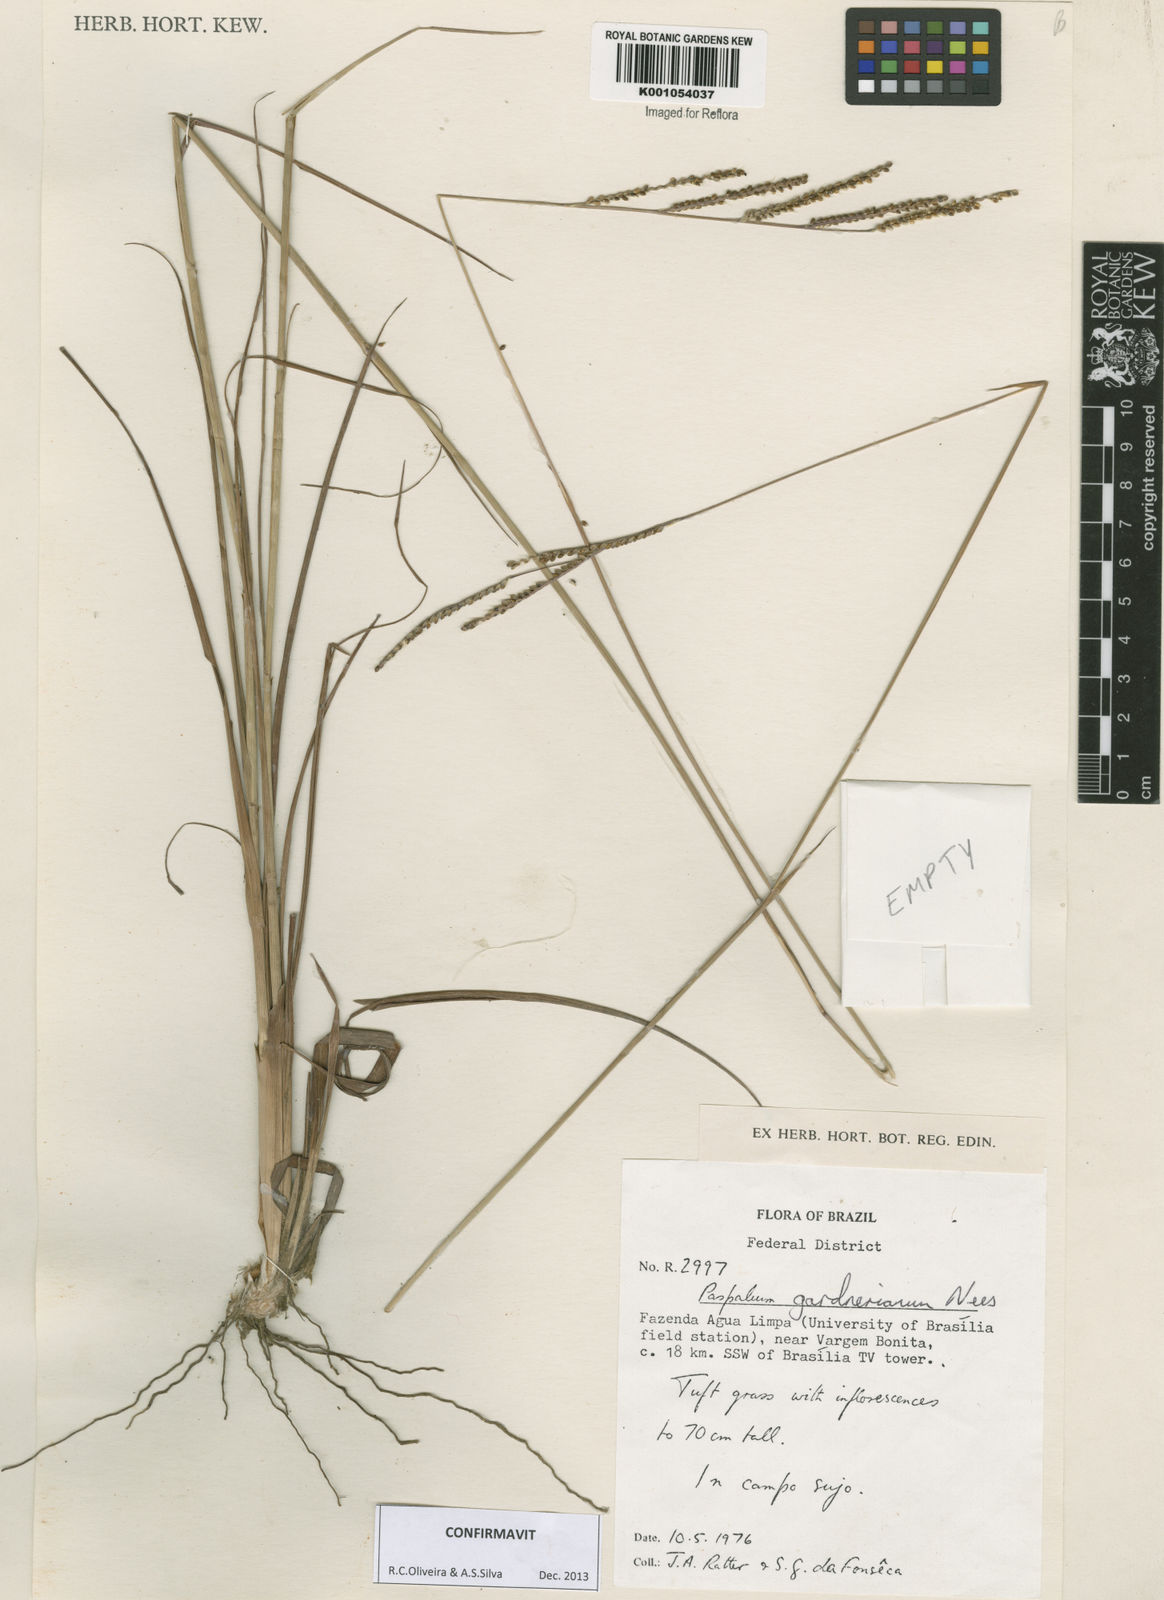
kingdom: Plantae
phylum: Tracheophyta
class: Liliopsida
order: Poales
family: Poaceae
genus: Paspalum
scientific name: Paspalum gardnerianum
